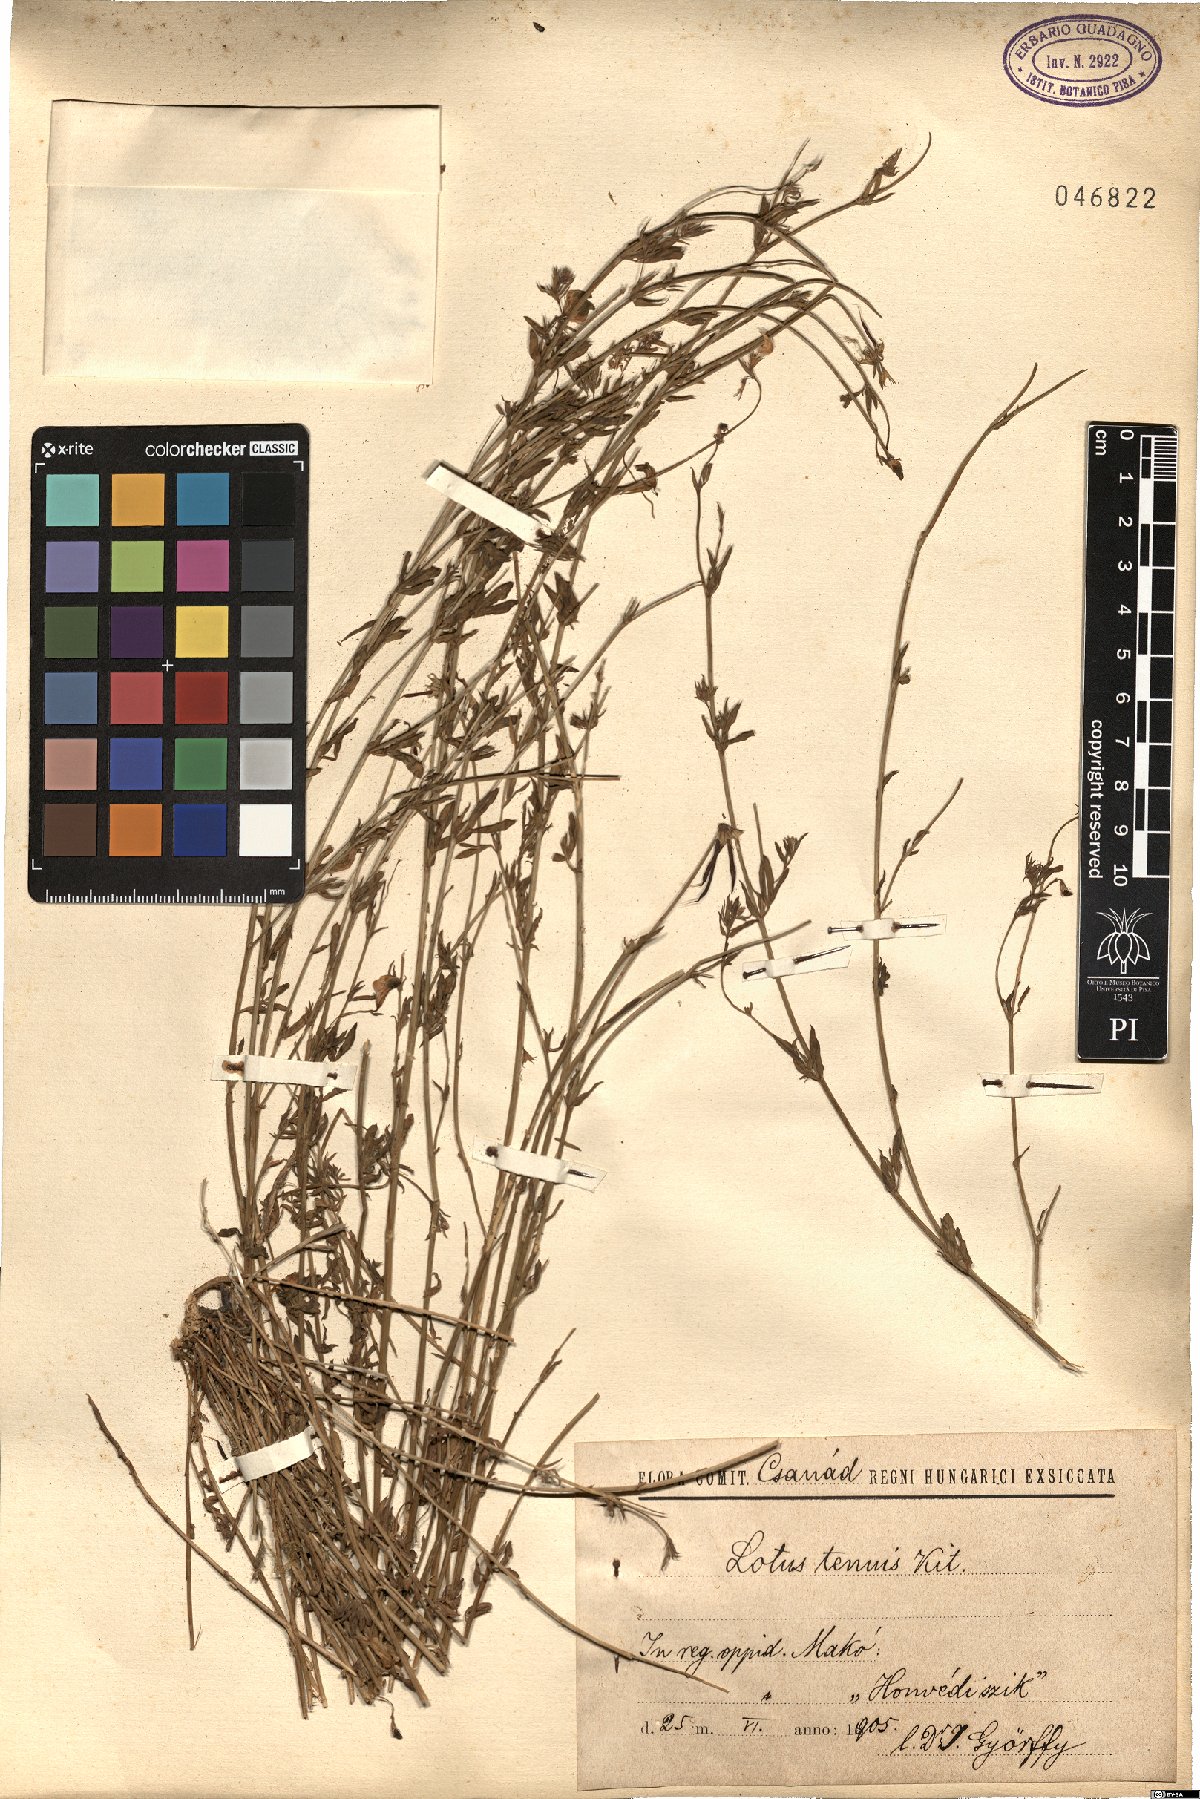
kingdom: Plantae
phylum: Tracheophyta
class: Magnoliopsida
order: Fabales
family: Fabaceae
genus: Lotus
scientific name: Lotus tenuis
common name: Narrow-leaved bird's-foot-trefoil
